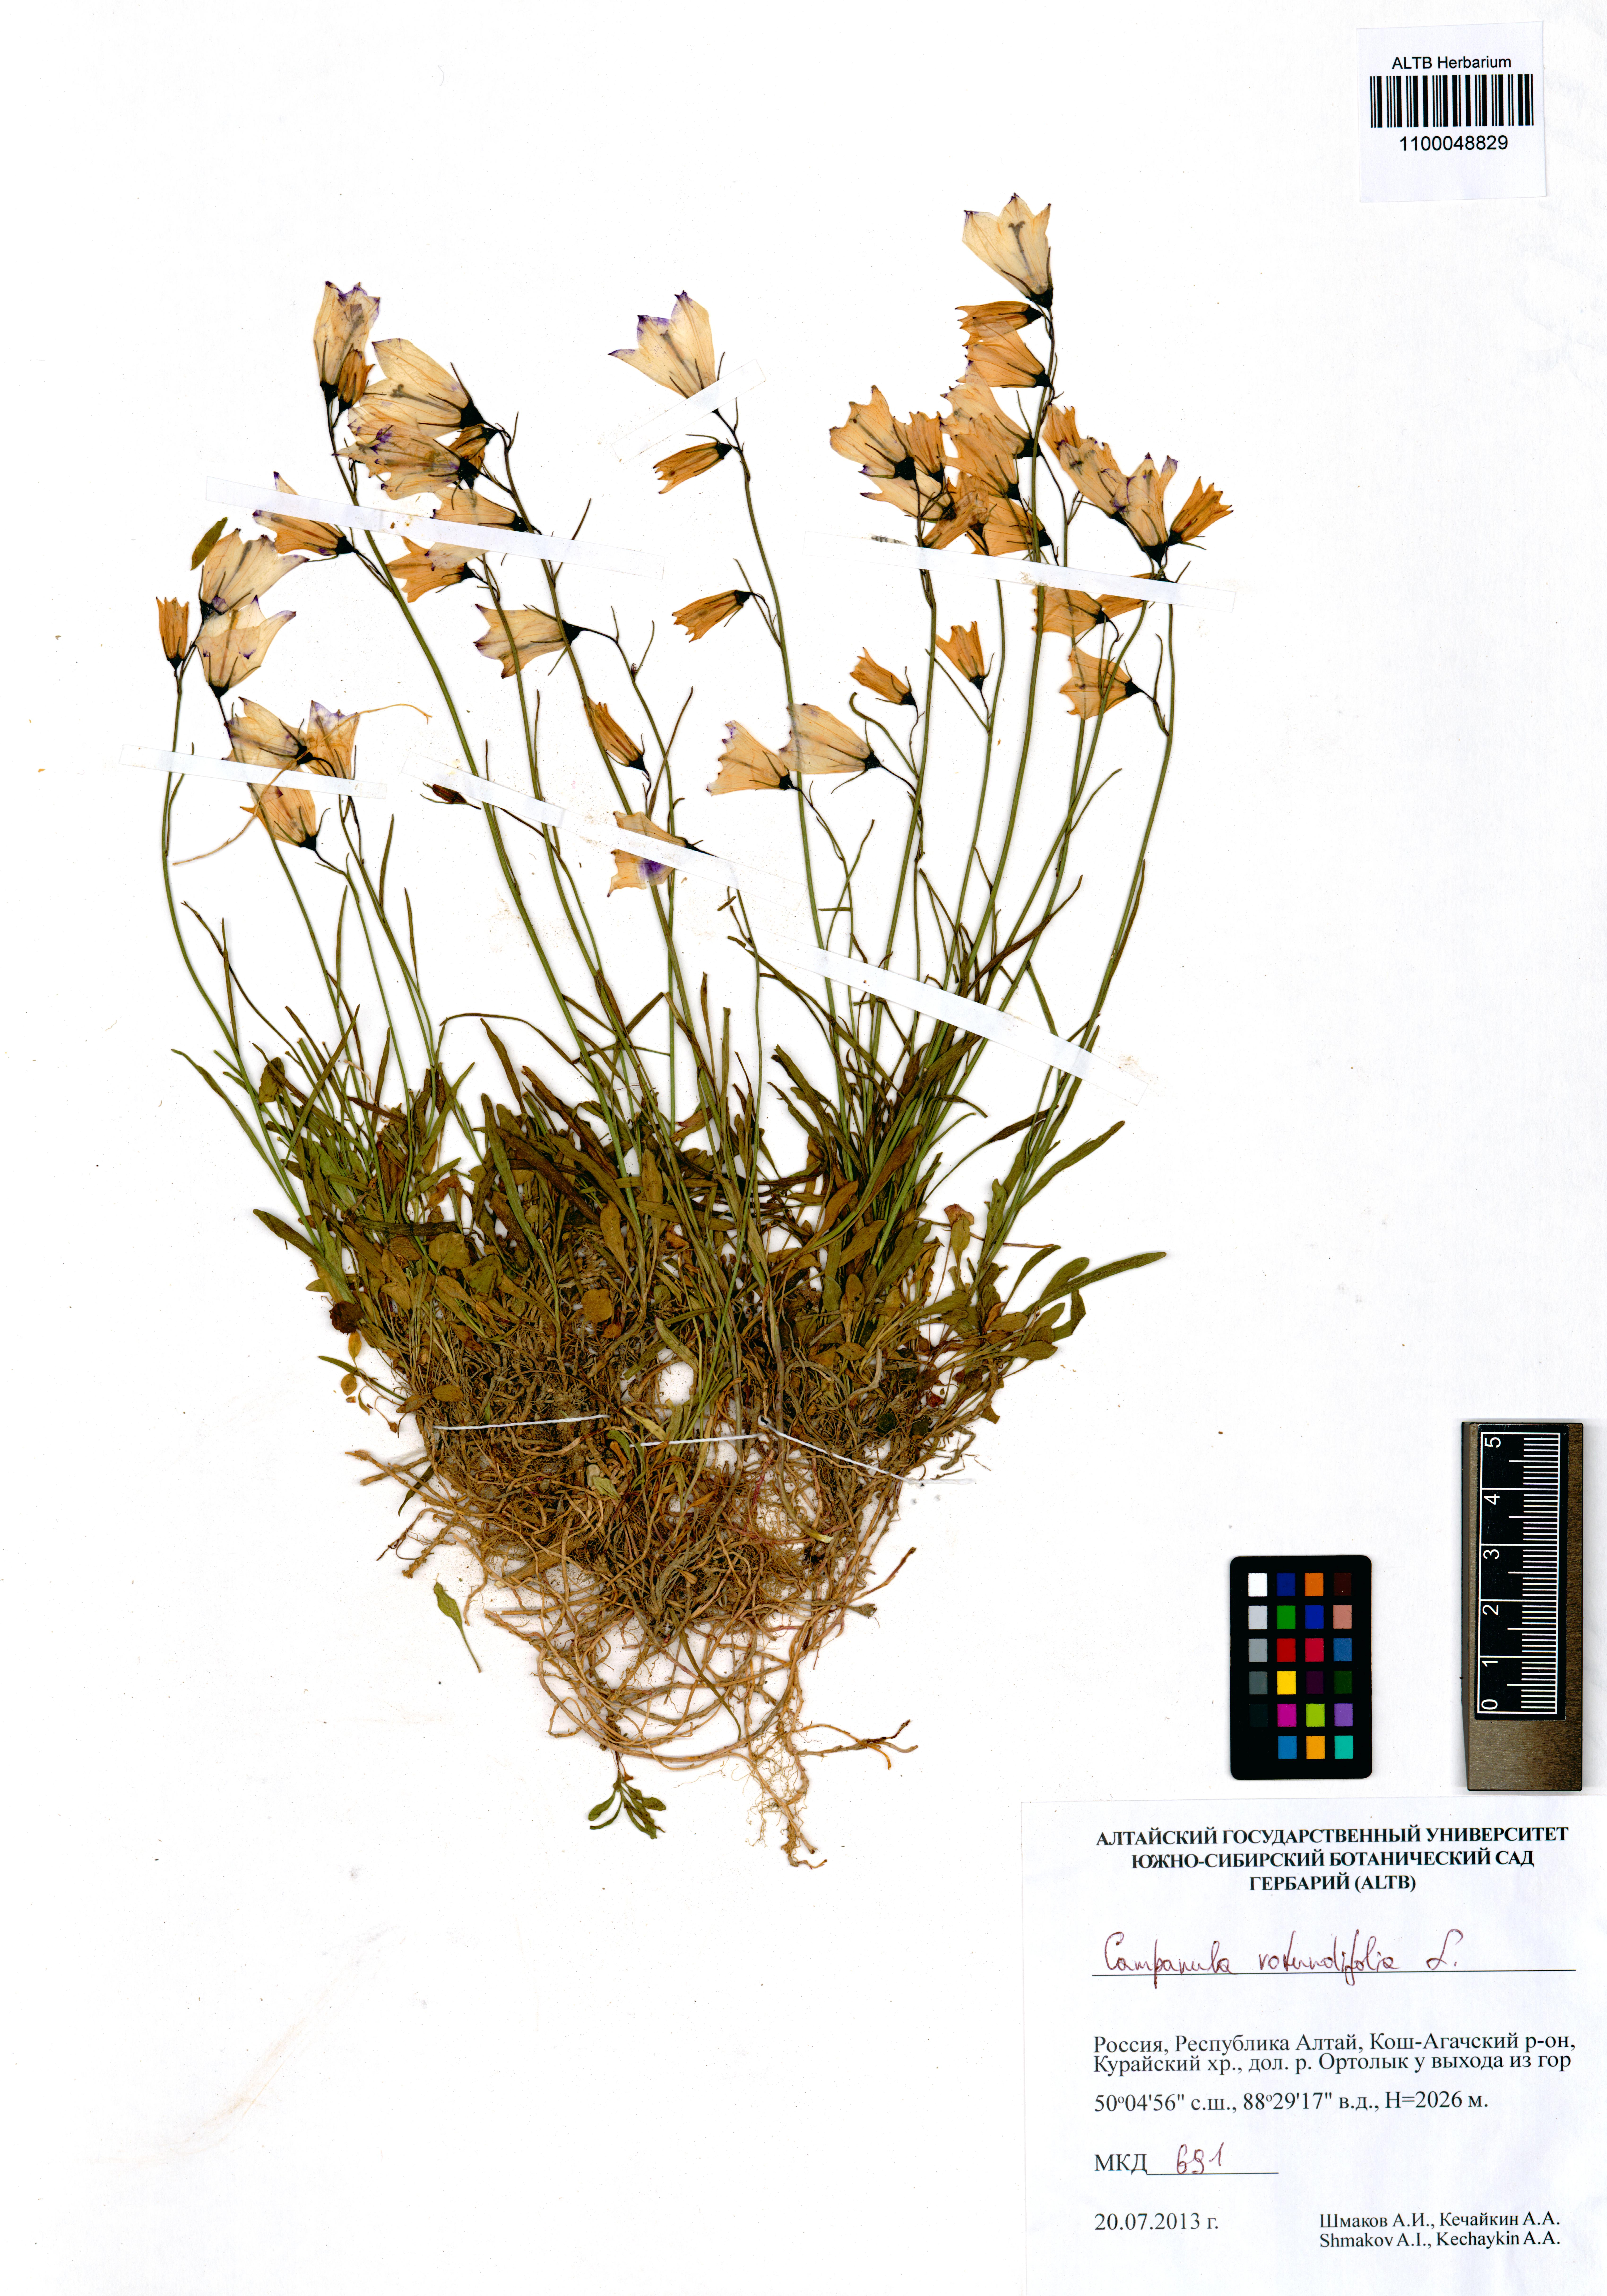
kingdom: Plantae
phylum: Tracheophyta
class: Magnoliopsida
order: Asterales
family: Campanulaceae
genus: Campanula
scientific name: Campanula rotundifolia
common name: Harebell
